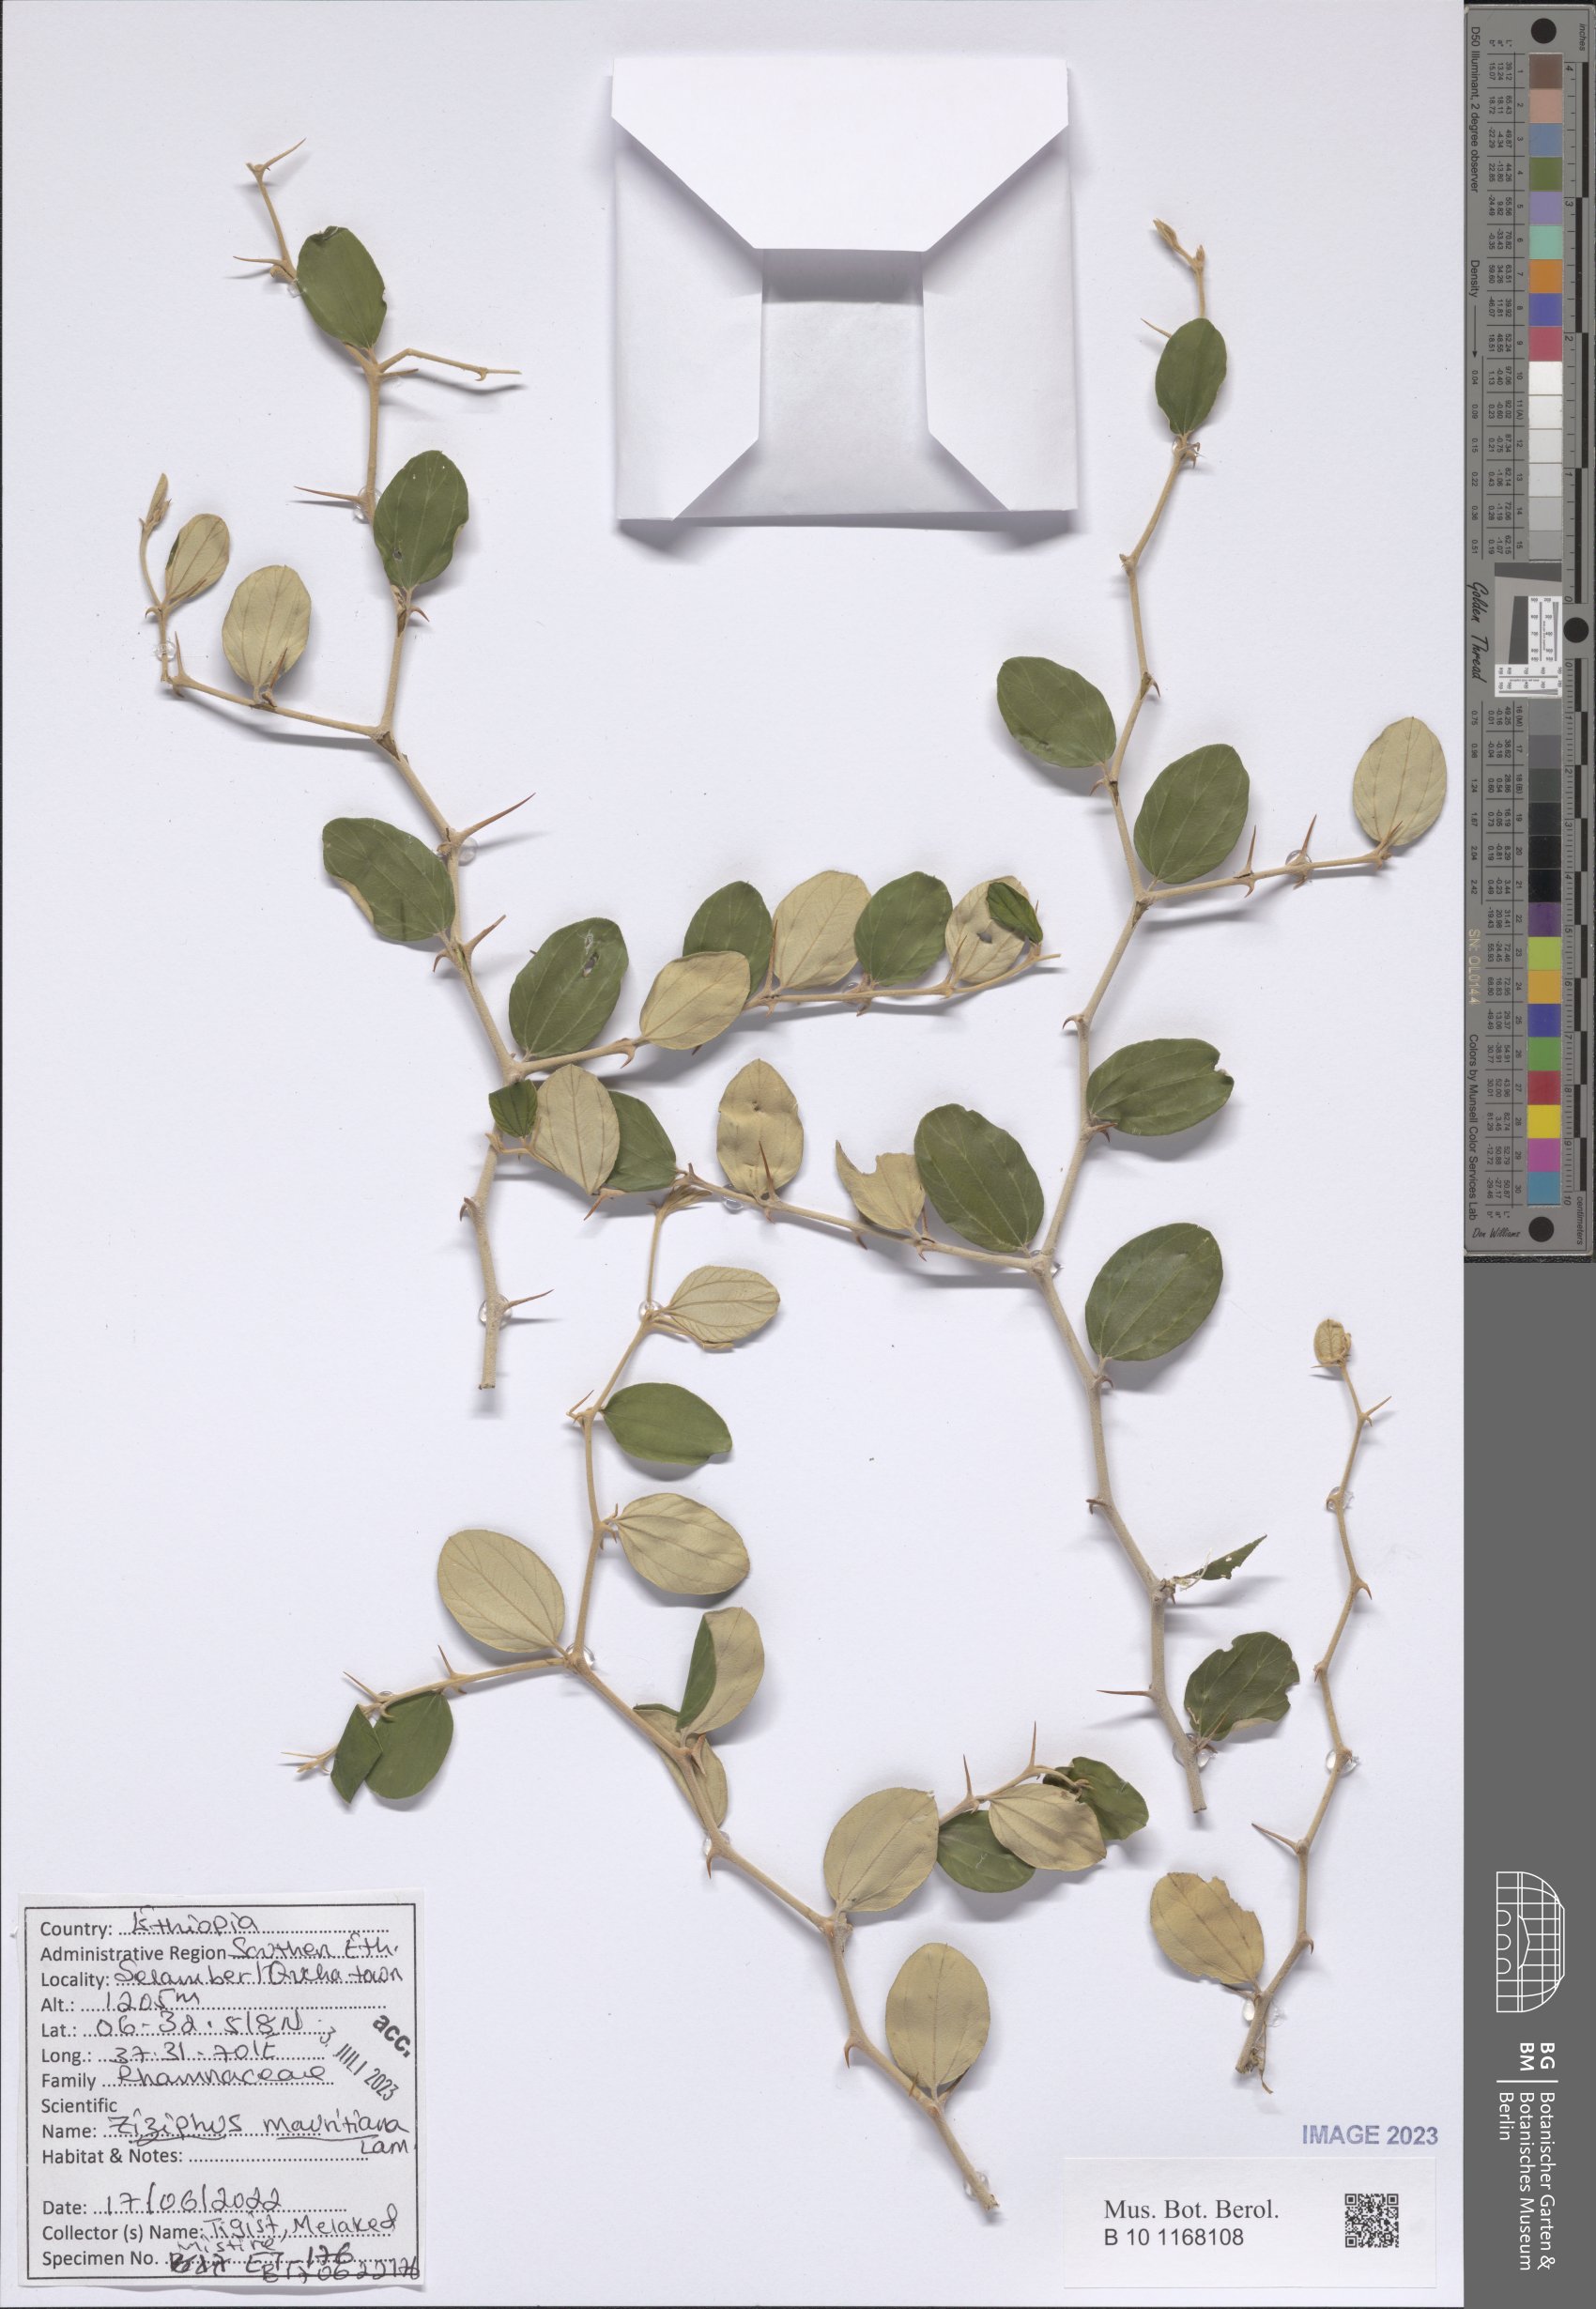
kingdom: Plantae
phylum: Tracheophyta
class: Magnoliopsida
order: Rosales
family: Rhamnaceae
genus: Ziziphus
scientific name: Ziziphus mauritiana
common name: Indian jujube
